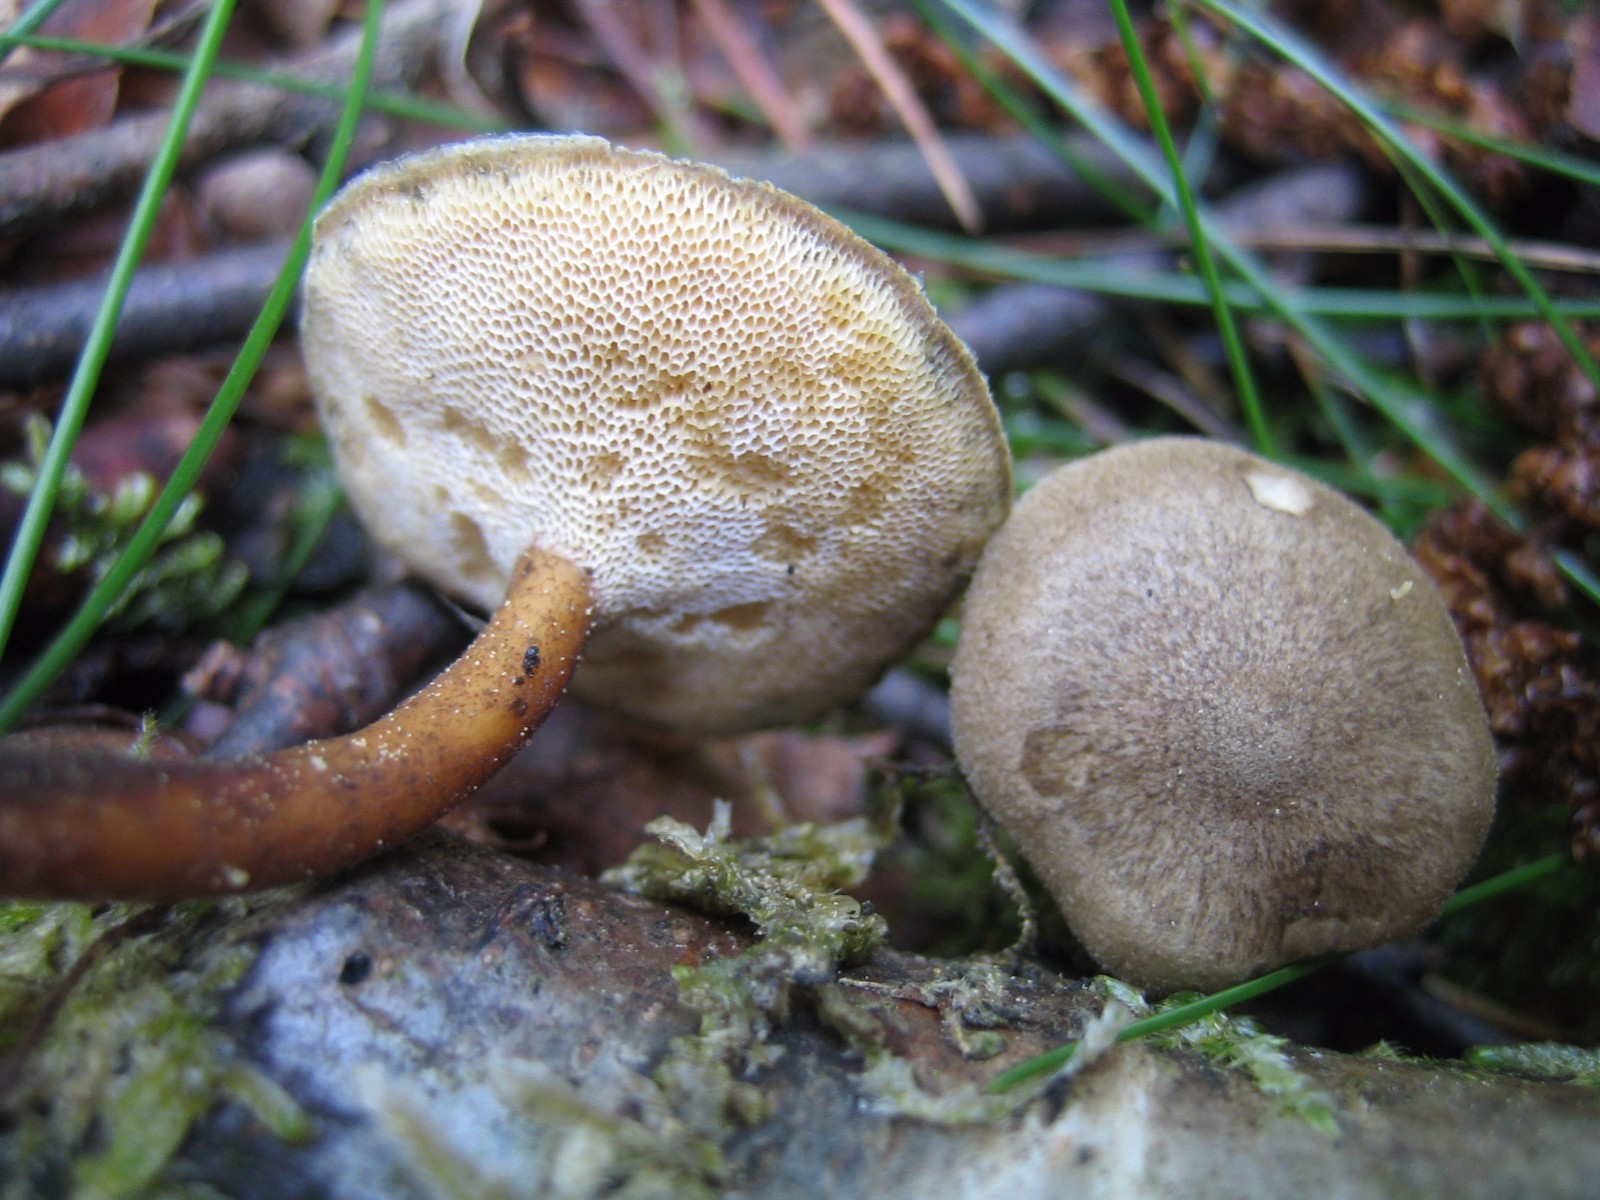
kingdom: Fungi
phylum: Basidiomycota
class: Agaricomycetes
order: Polyporales
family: Polyporaceae
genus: Lentinus
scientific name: Lentinus brumalis
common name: vinter-stilkporesvamp
